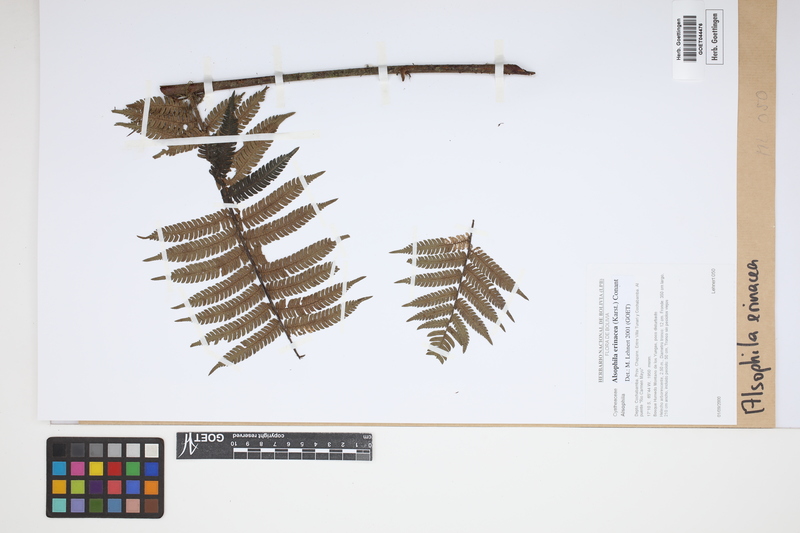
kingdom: Plantae
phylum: Tracheophyta
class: Polypodiopsida
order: Cyatheales
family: Cyatheaceae
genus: Alsophila
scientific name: Alsophila erinacea
